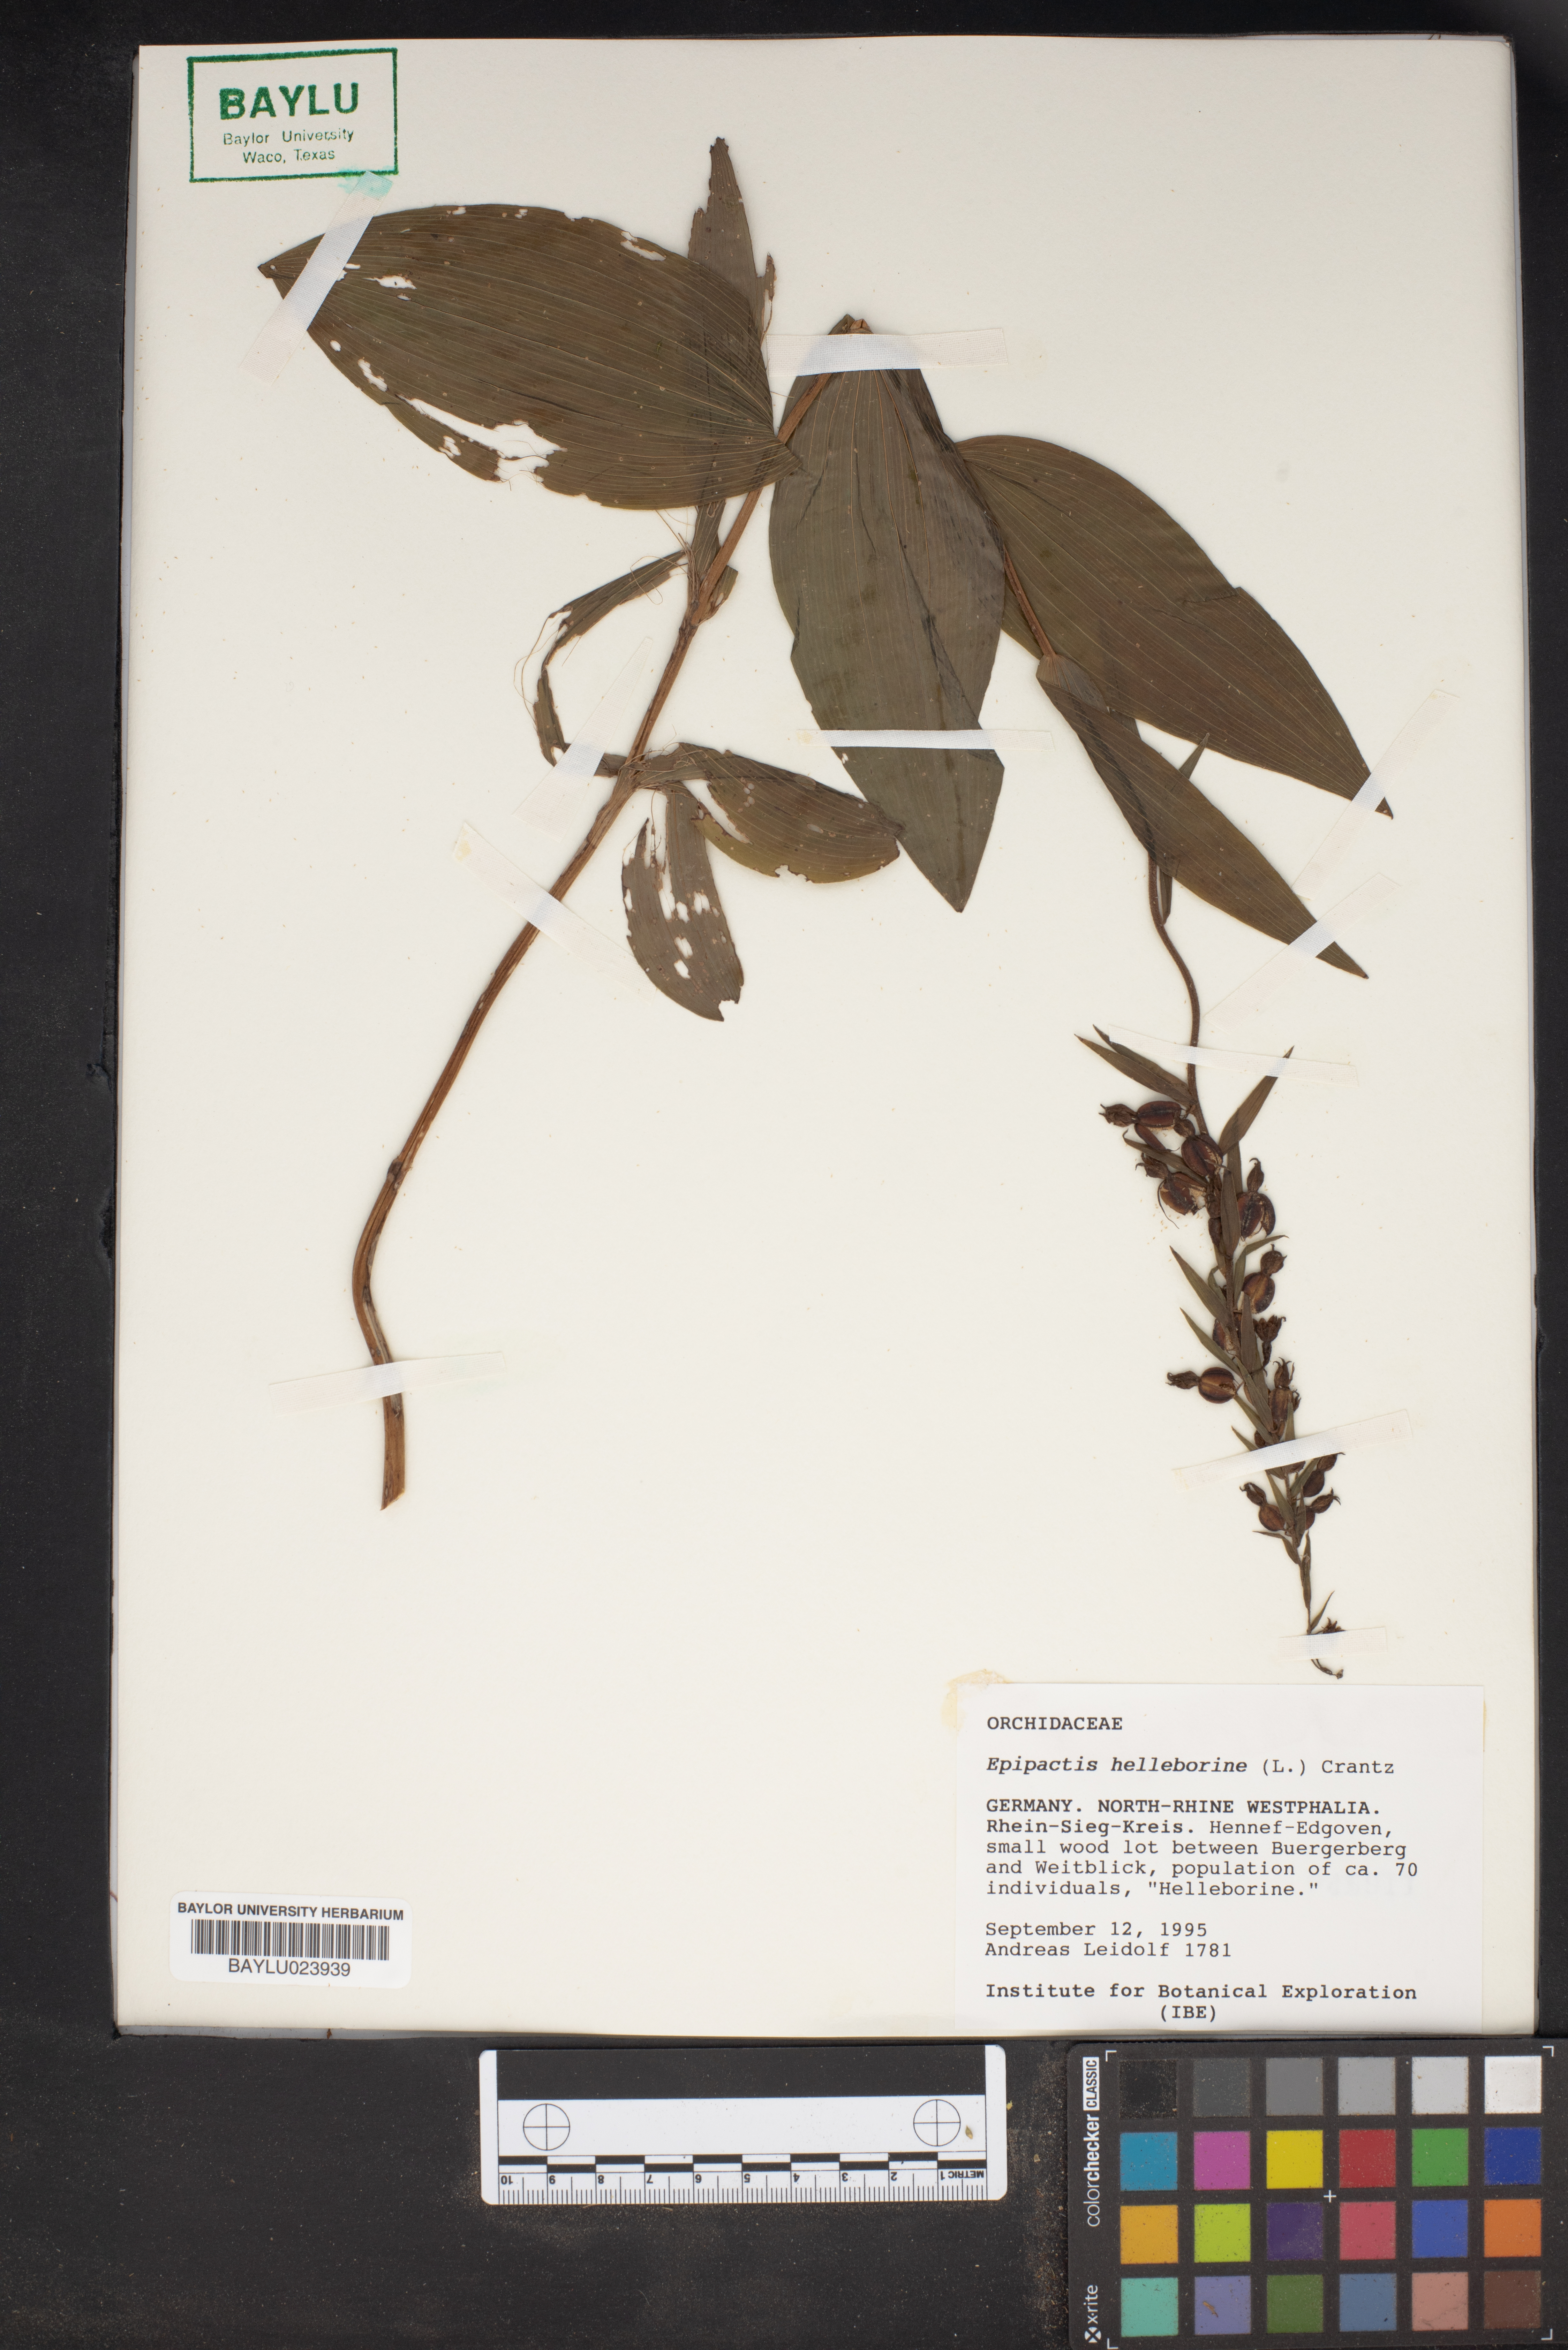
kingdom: Plantae
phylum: Tracheophyta
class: Liliopsida
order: Asparagales
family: Orchidaceae
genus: Epipactis
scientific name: Epipactis helleborine
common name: Broad-leaved helleborine
